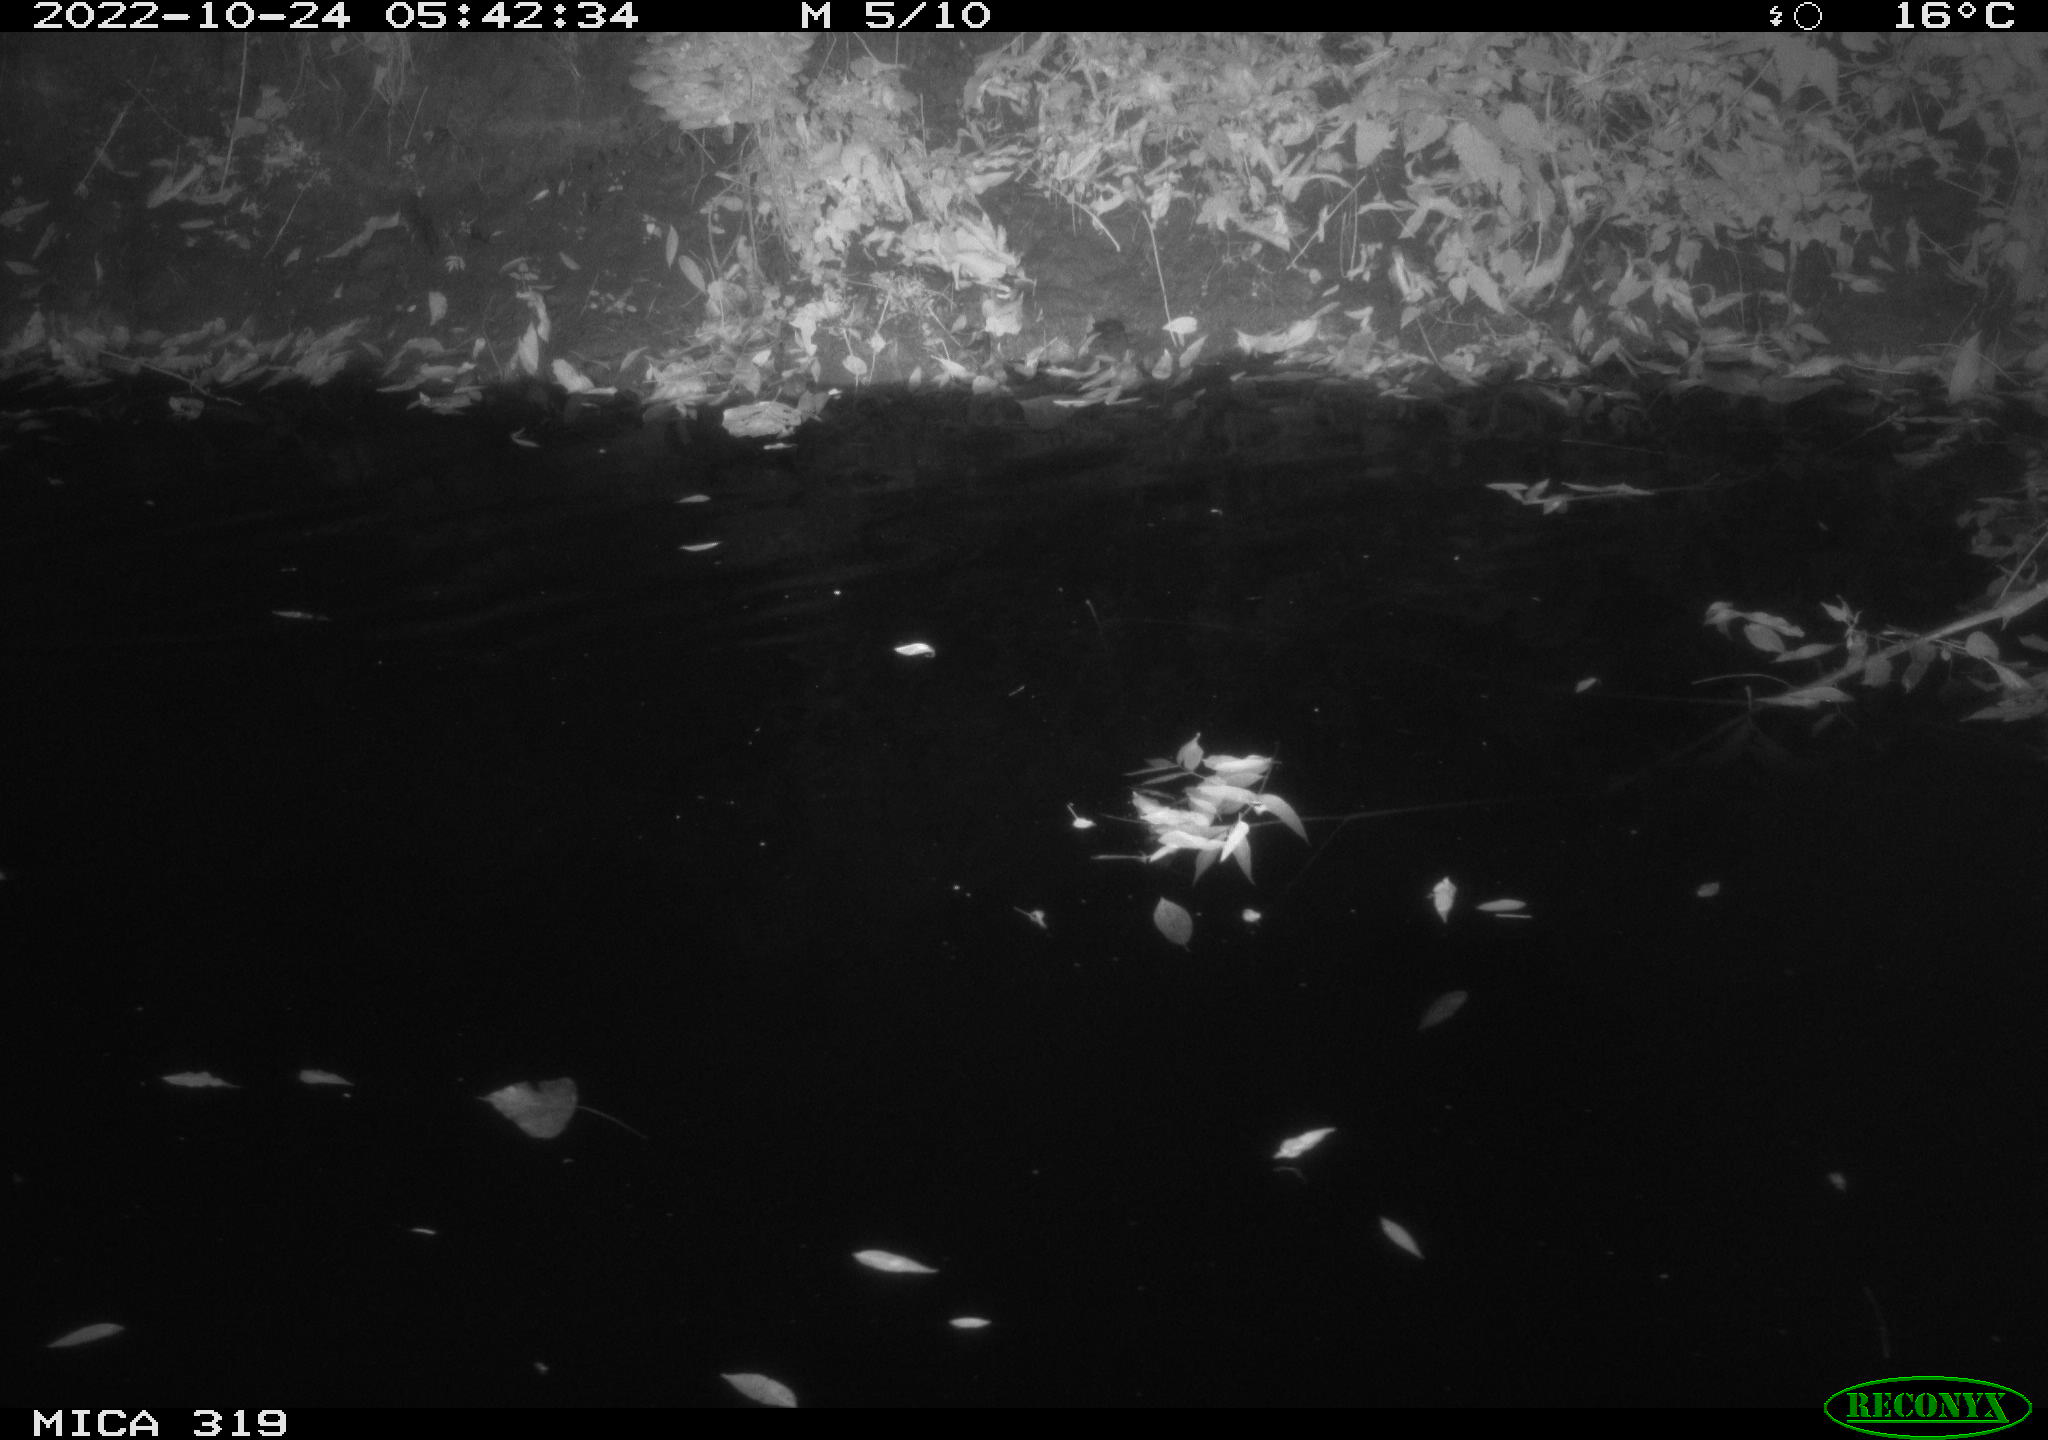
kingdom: Animalia
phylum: Chordata
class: Aves
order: Anseriformes
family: Anatidae
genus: Anas
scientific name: Anas
